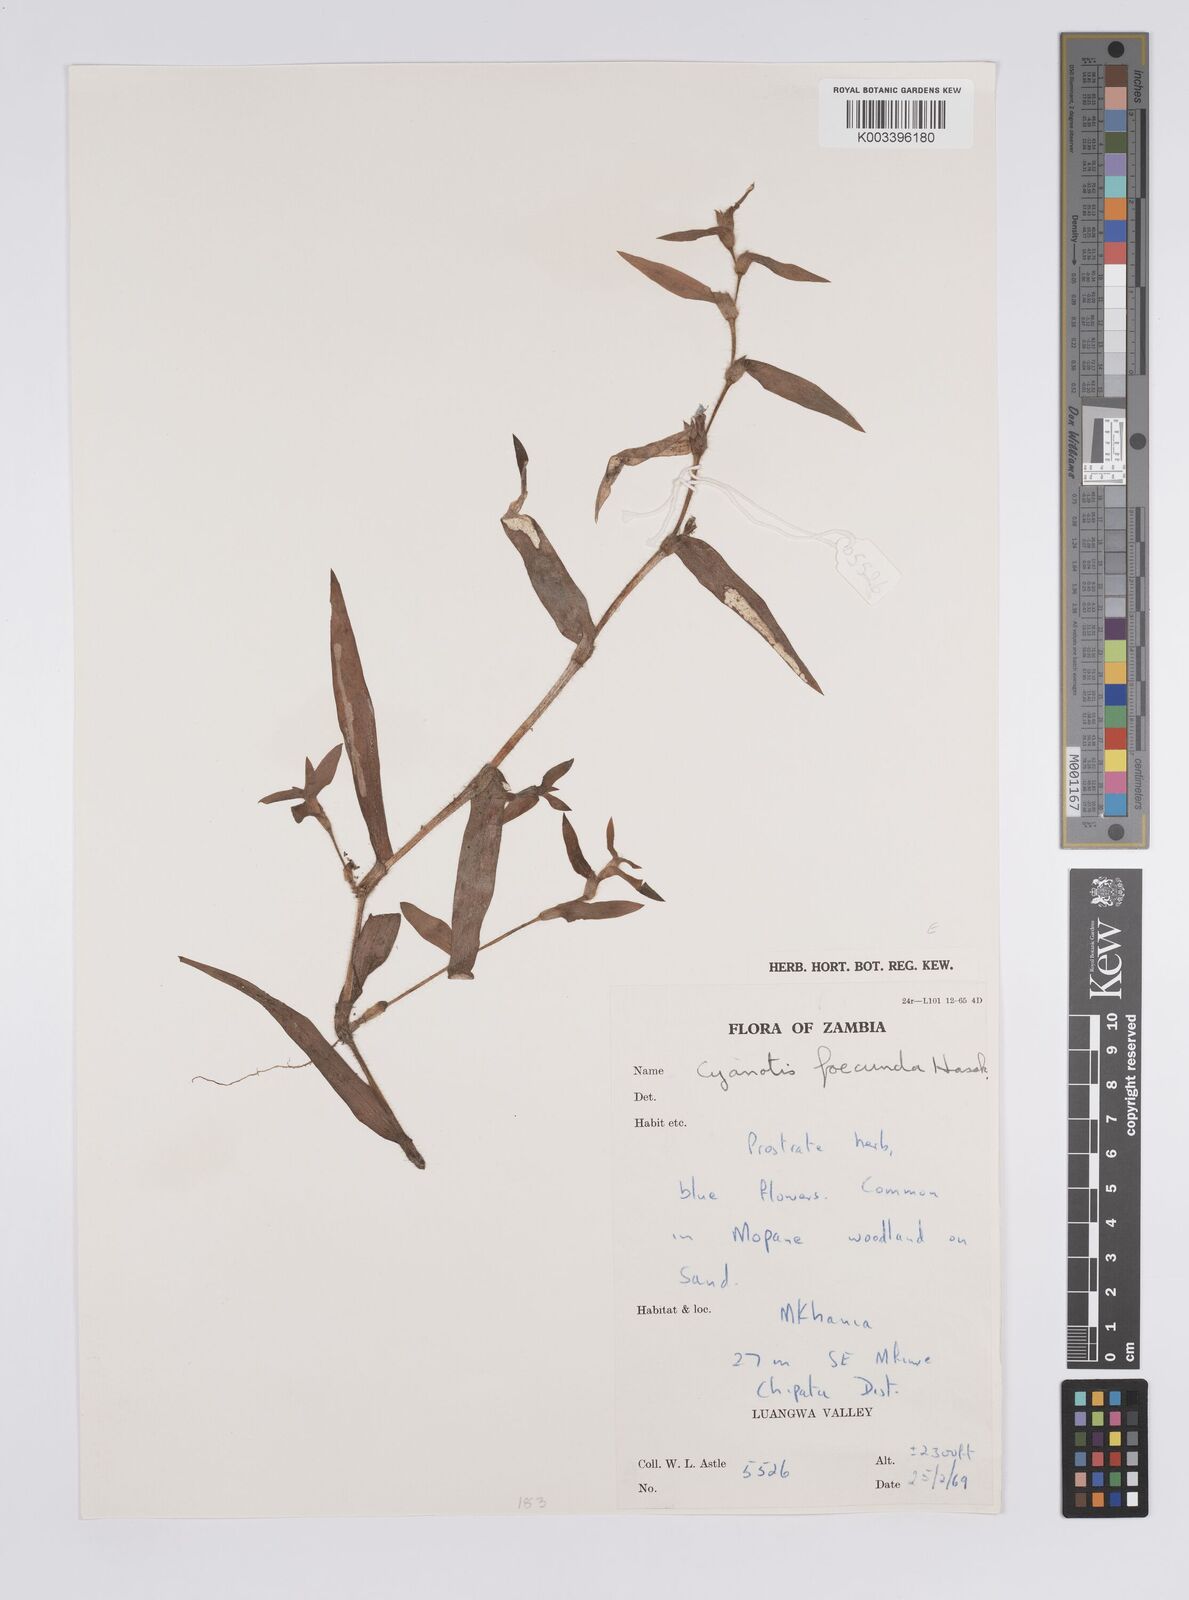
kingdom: Plantae
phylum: Tracheophyta
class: Liliopsida
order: Commelinales
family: Commelinaceae
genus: Cyanotis
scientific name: Cyanotis foecunda
